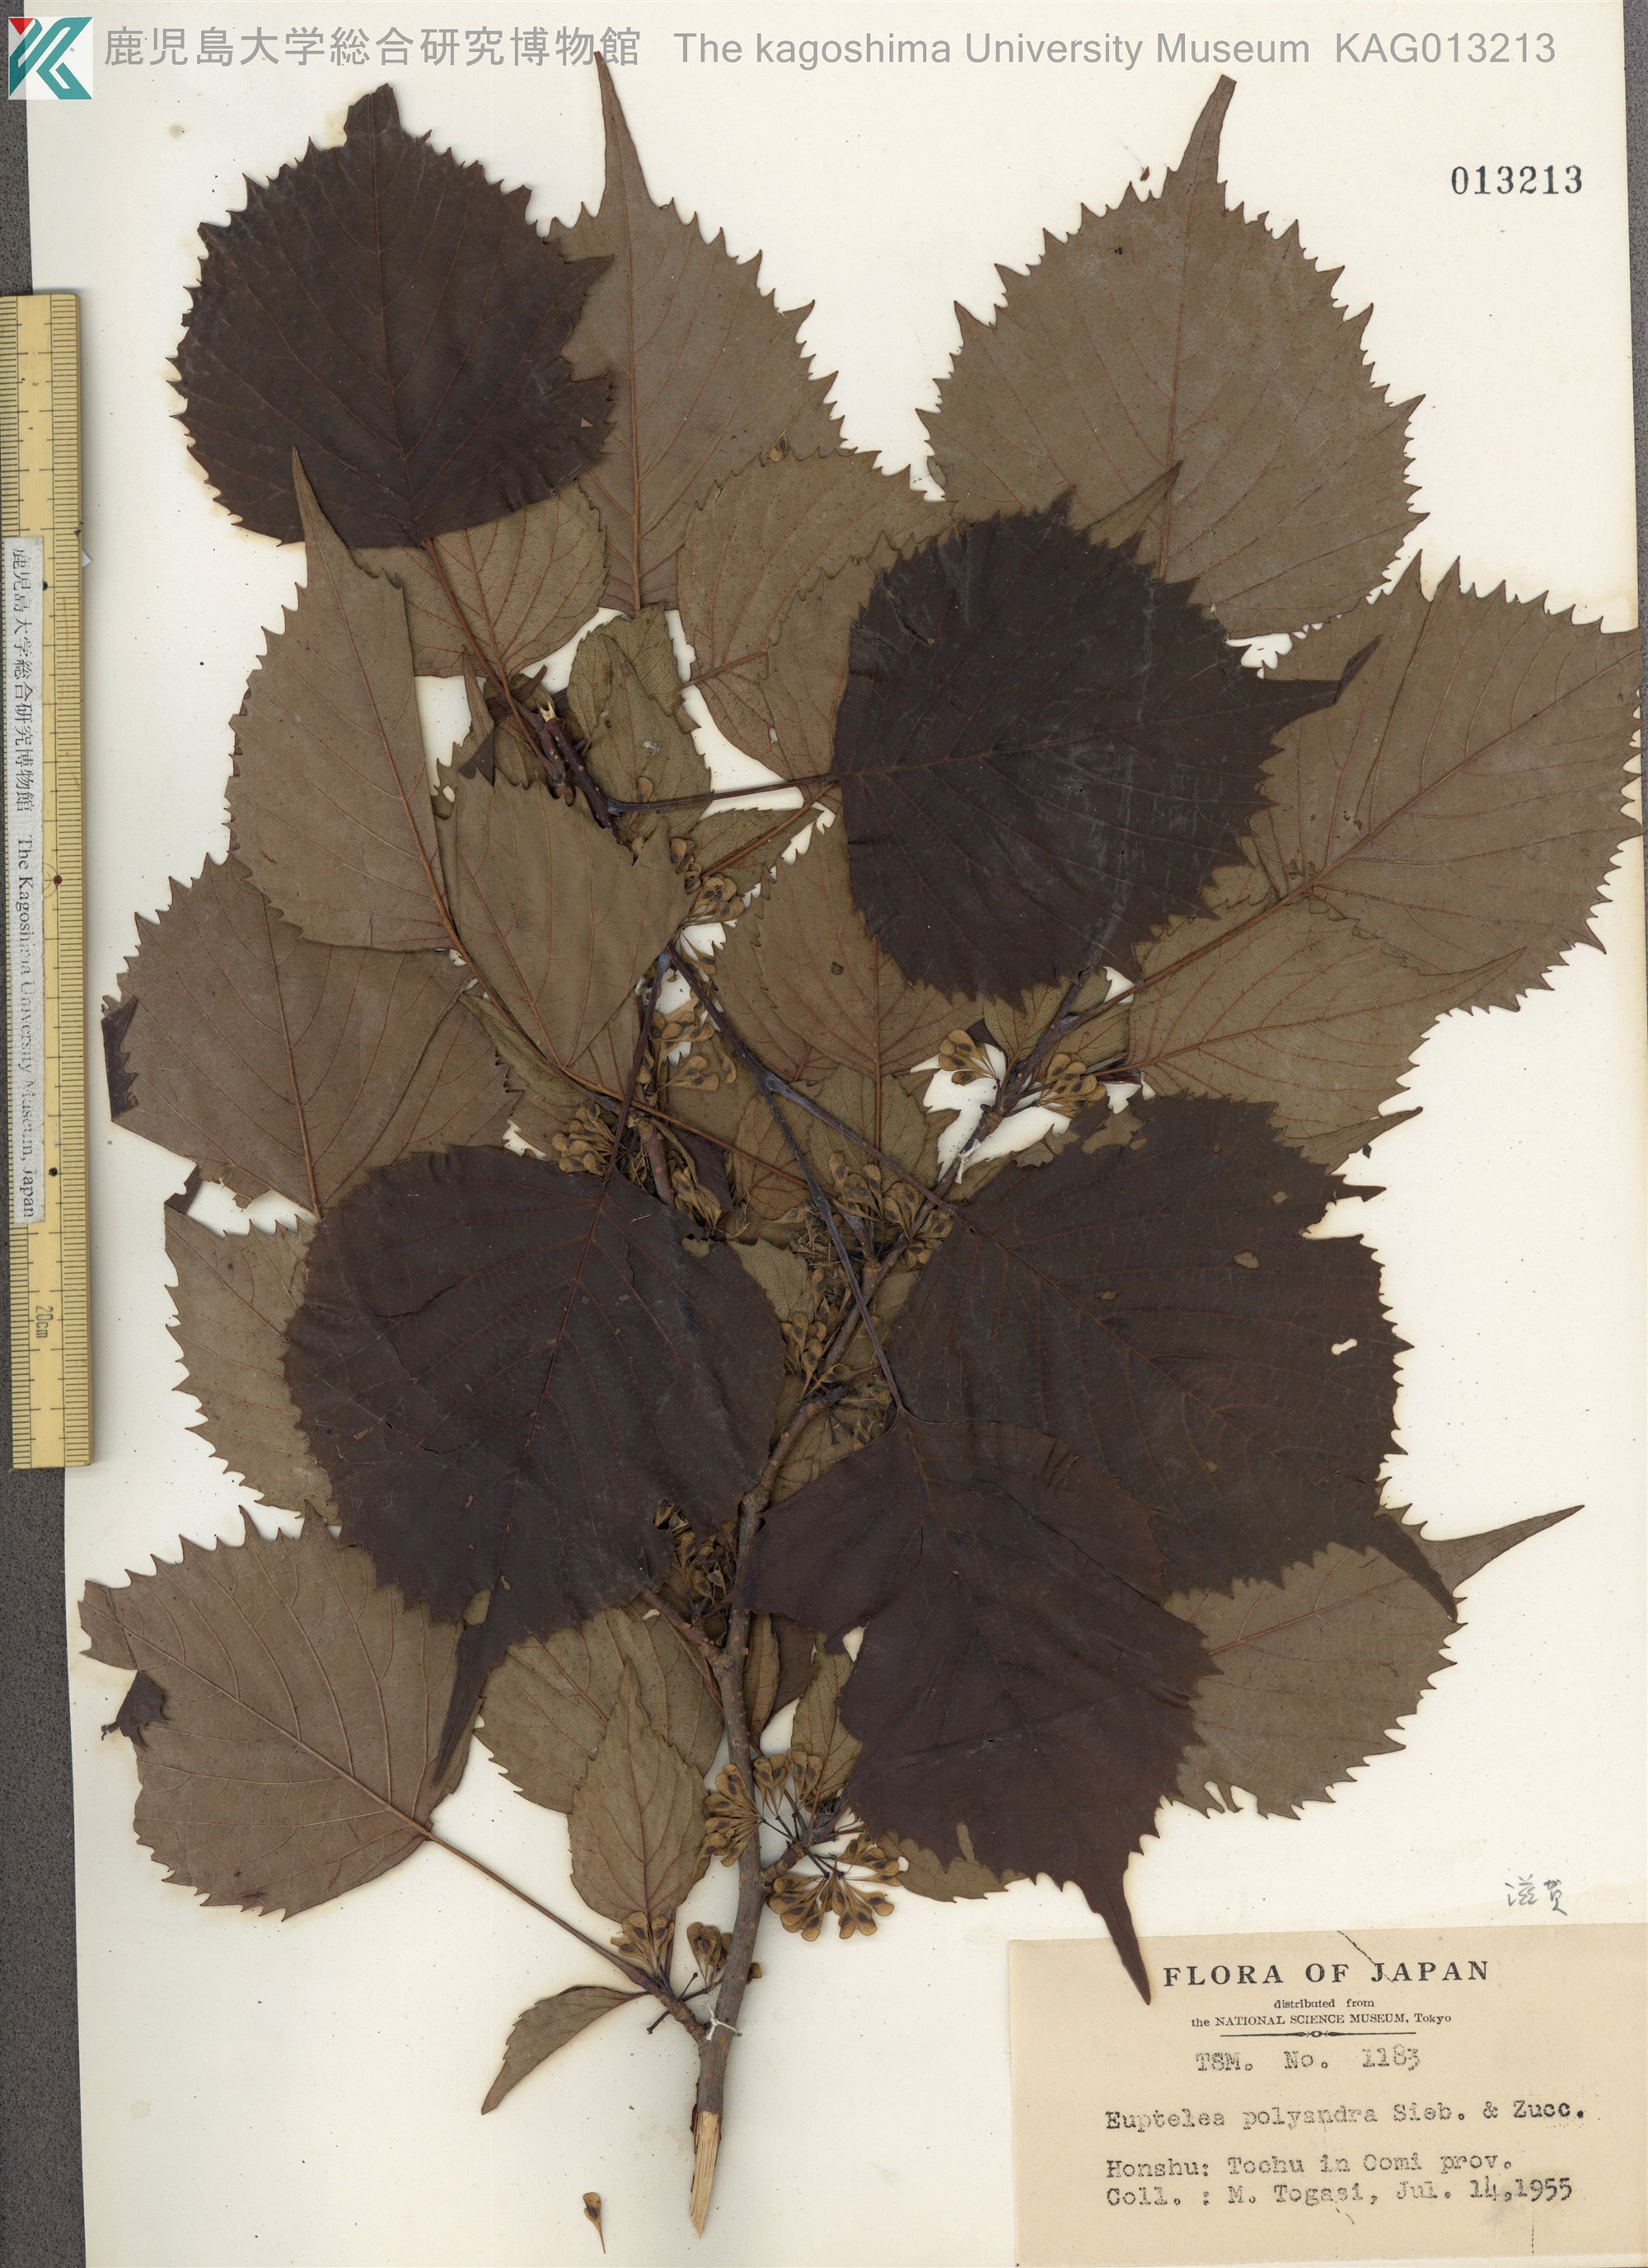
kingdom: Plantae
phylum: Tracheophyta
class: Magnoliopsida
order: Ranunculales
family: Eupteleaceae
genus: Euptelea
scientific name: Euptelea polyandra
